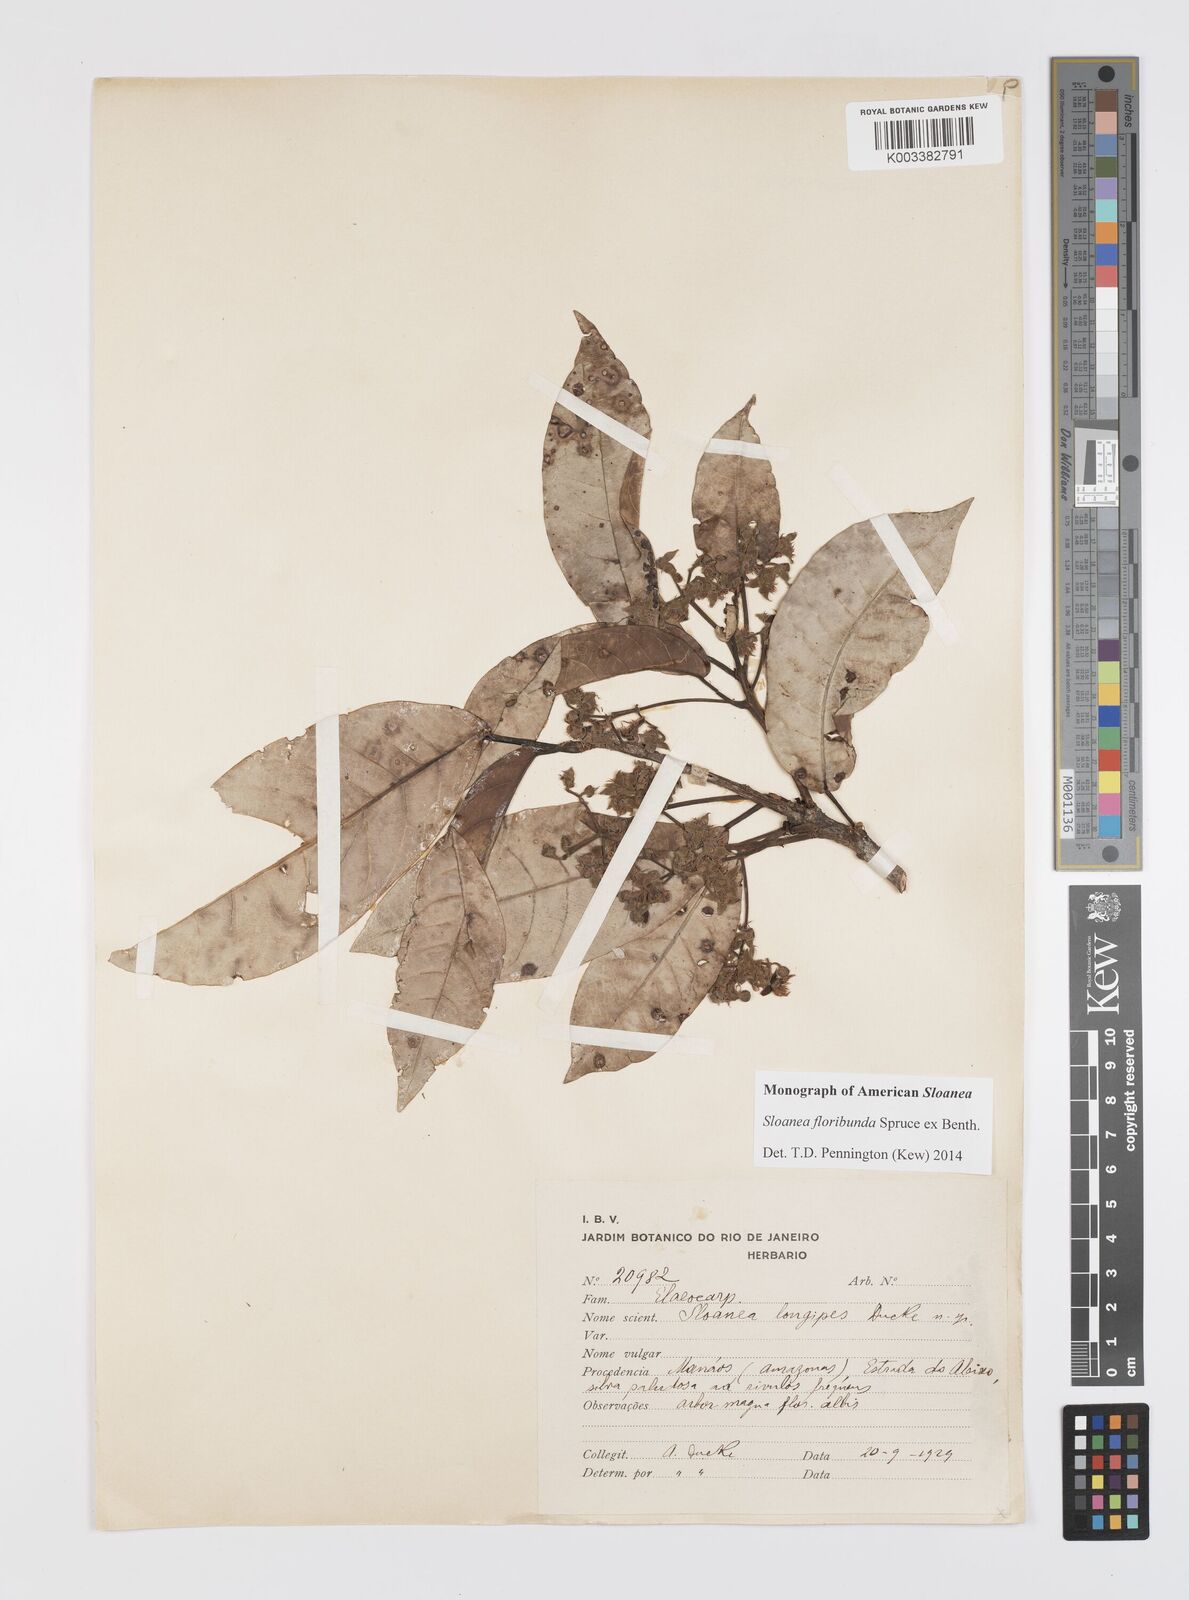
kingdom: Plantae
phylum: Tracheophyta
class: Magnoliopsida
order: Oxalidales
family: Elaeocarpaceae
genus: Sloanea
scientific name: Sloanea floribunda
